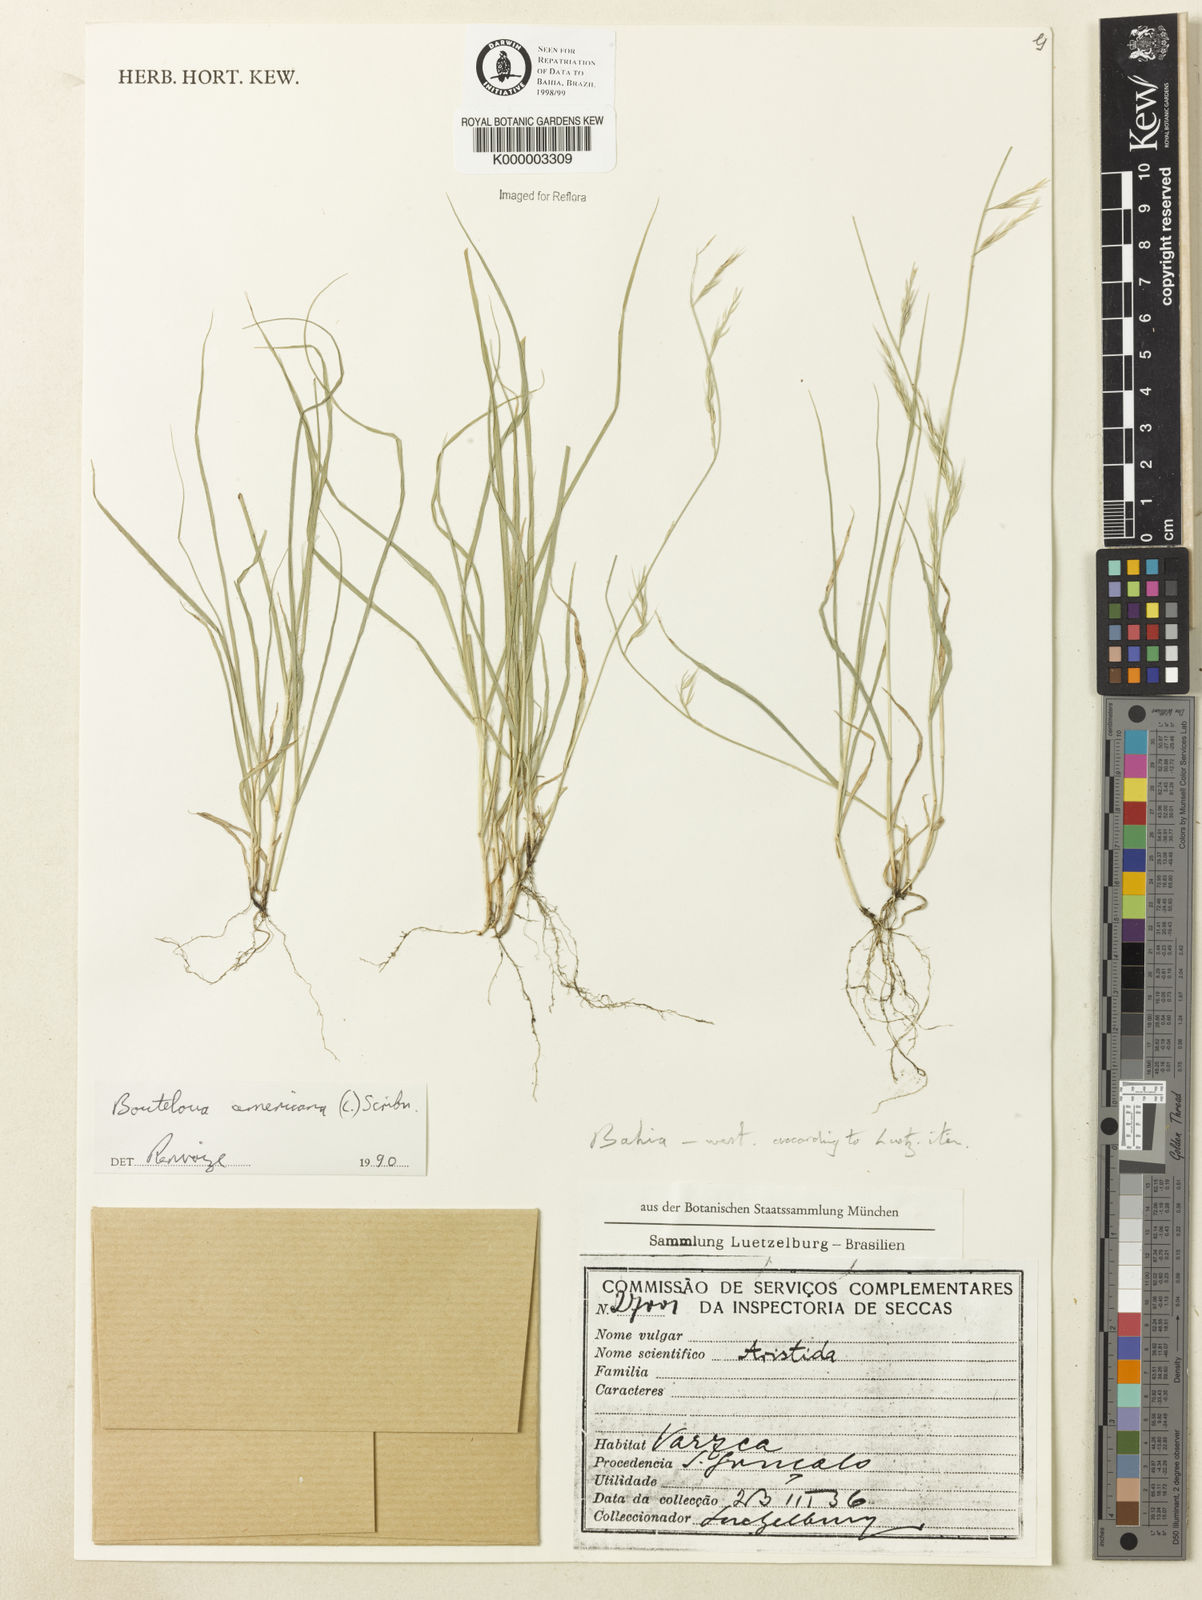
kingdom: Plantae
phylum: Tracheophyta
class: Liliopsida
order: Poales
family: Poaceae
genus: Bouteloua
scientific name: Bouteloua americana
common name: Mule grass
